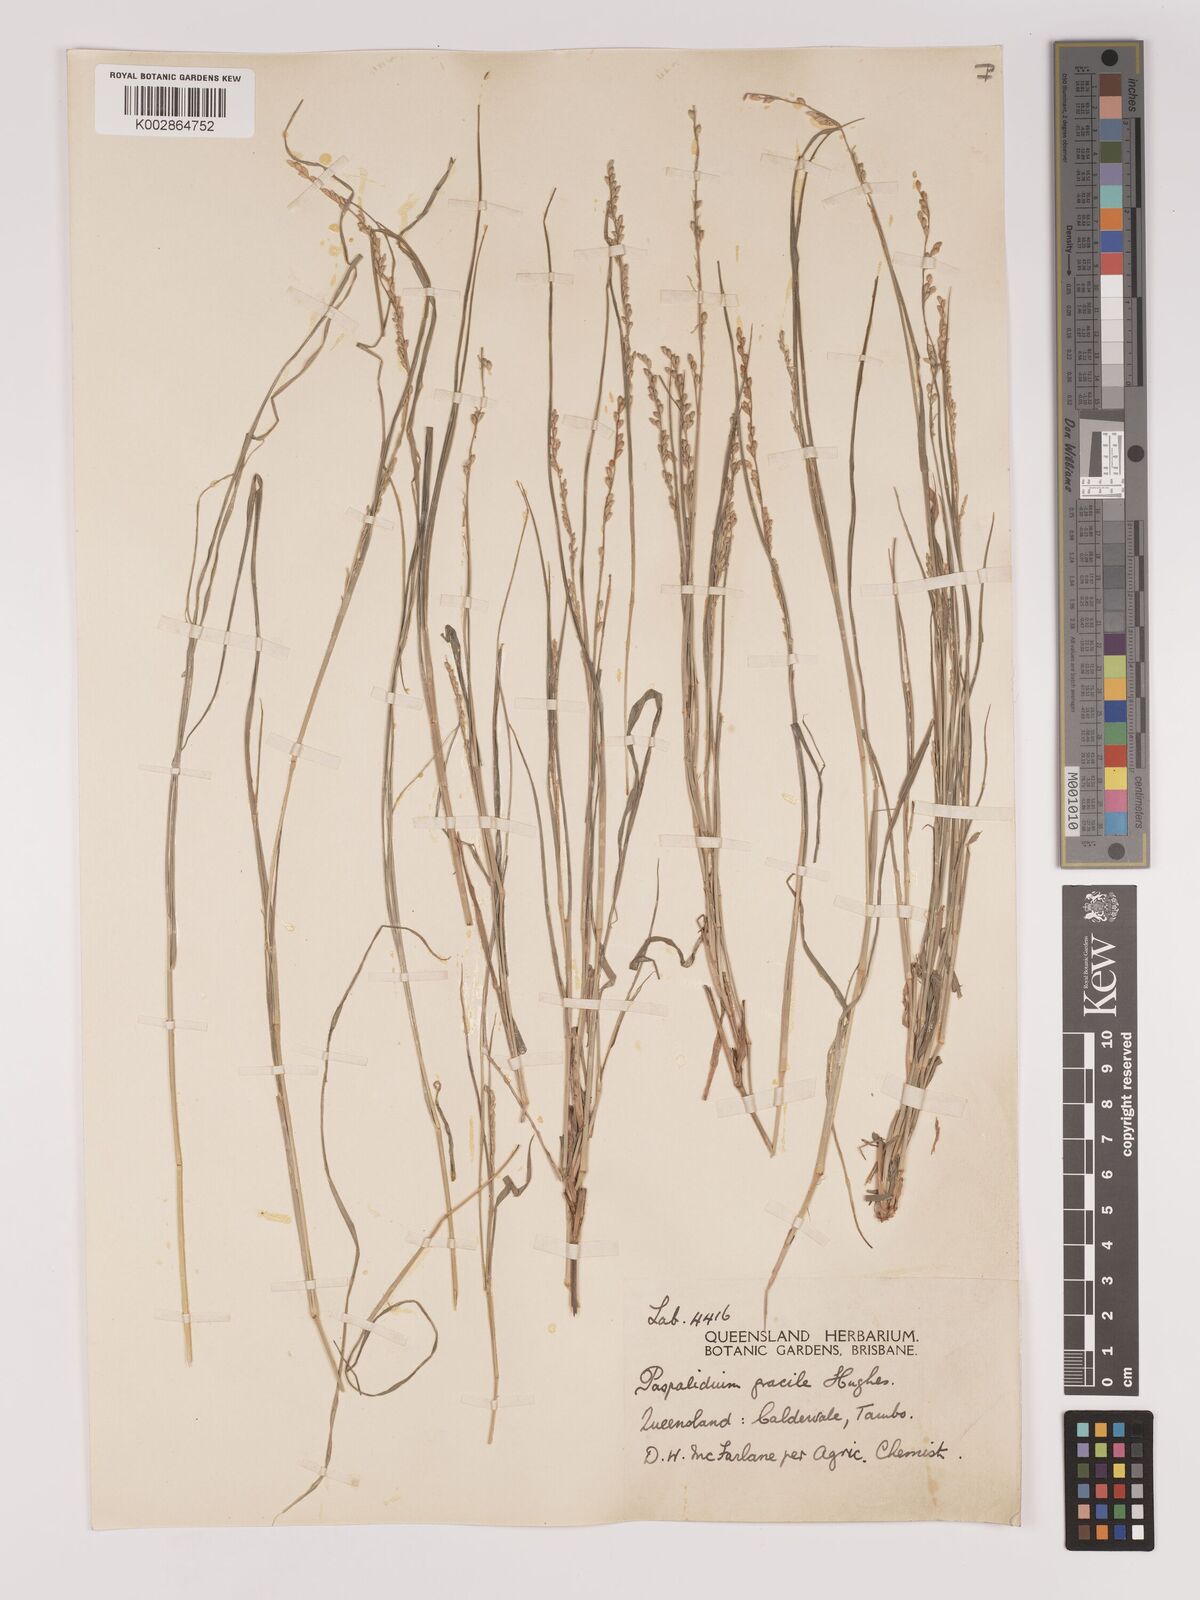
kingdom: Plantae
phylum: Tracheophyta
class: Liliopsida
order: Poales
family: Poaceae
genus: Setaria
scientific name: Setaria brownii
